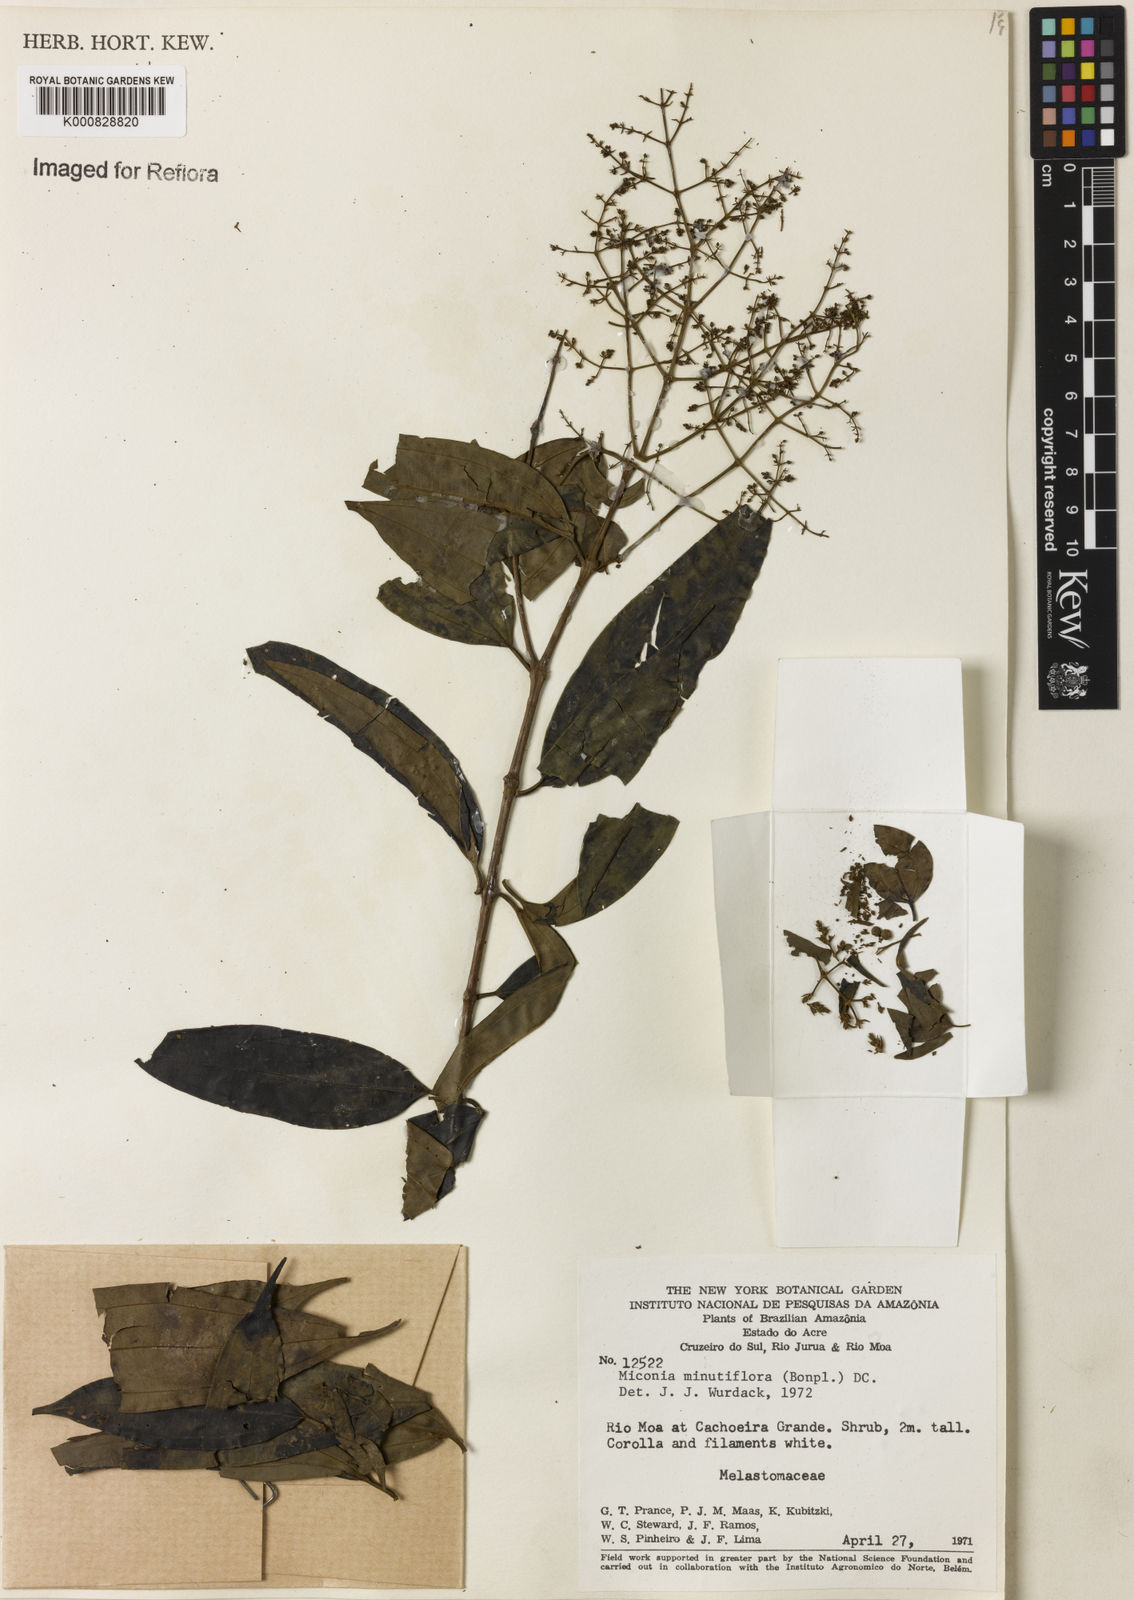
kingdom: Plantae
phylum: Tracheophyta
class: Magnoliopsida
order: Myrtales
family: Melastomataceae
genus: Miconia
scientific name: Miconia minutiflora
